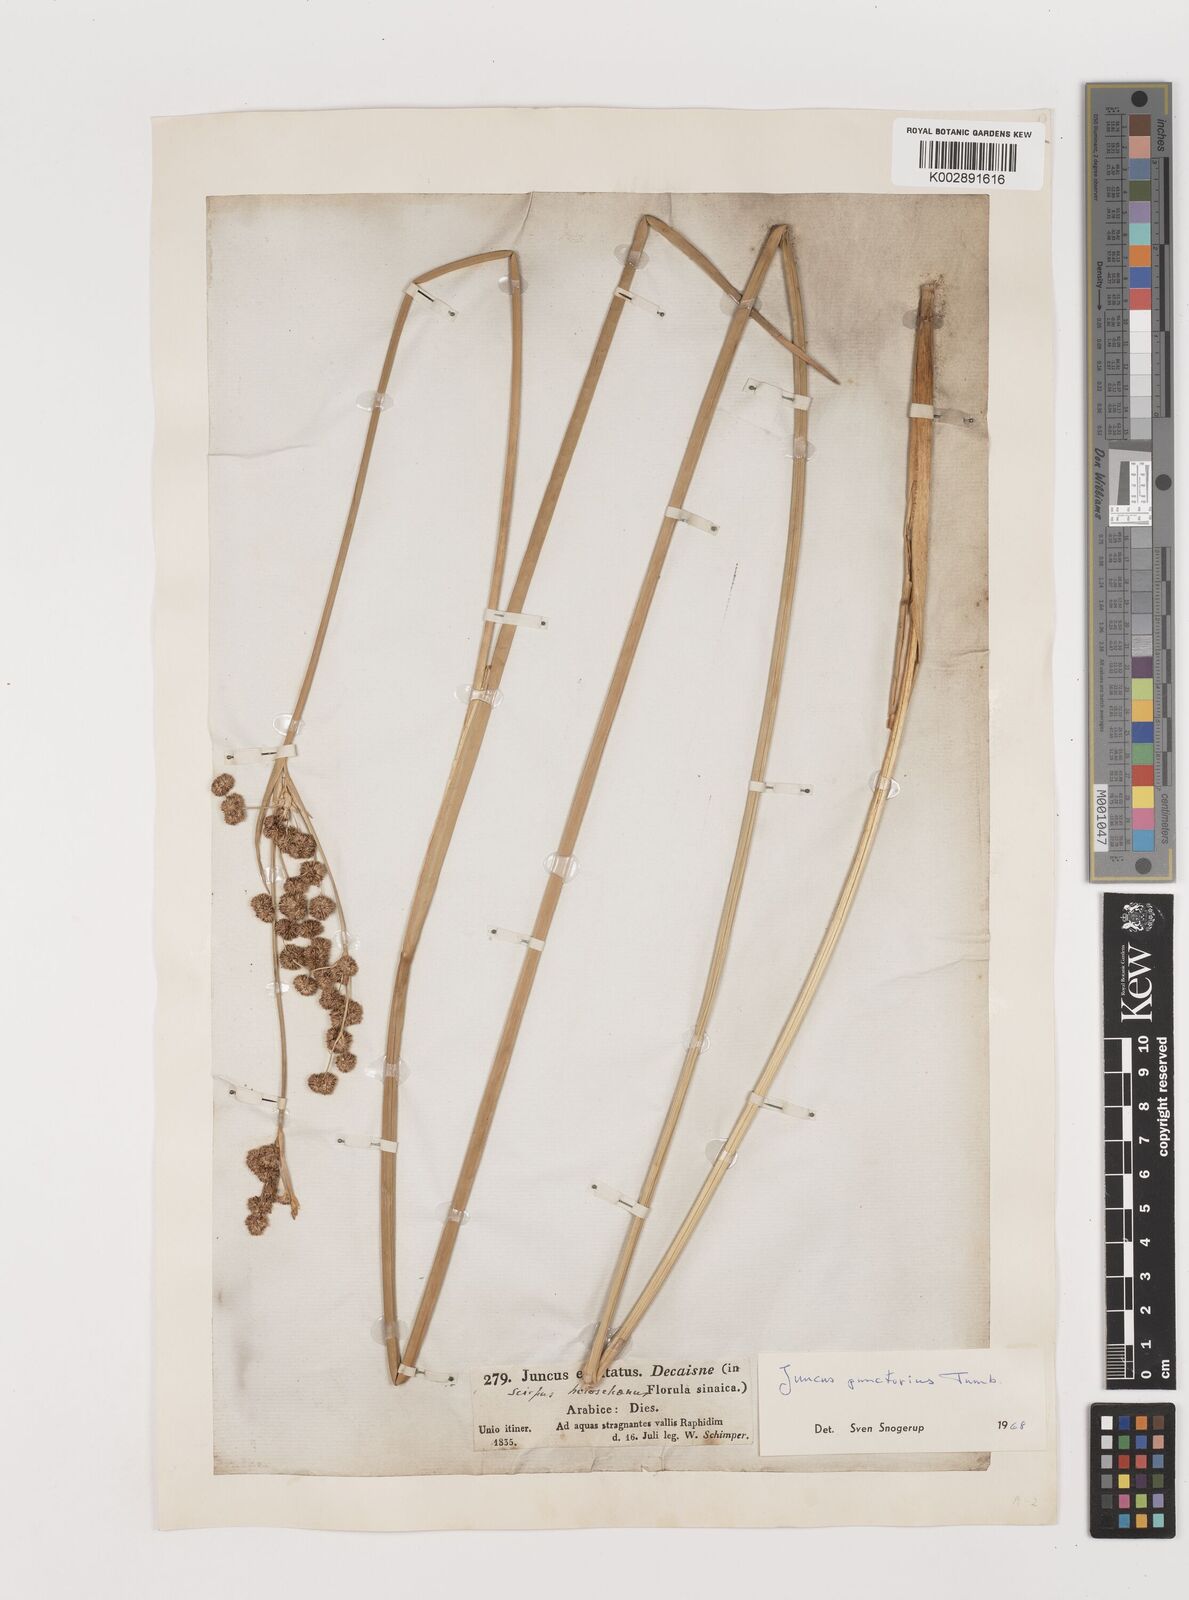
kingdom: Plantae
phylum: Tracheophyta
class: Liliopsida
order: Poales
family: Juncaceae
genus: Juncus
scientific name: Juncus punctorius
